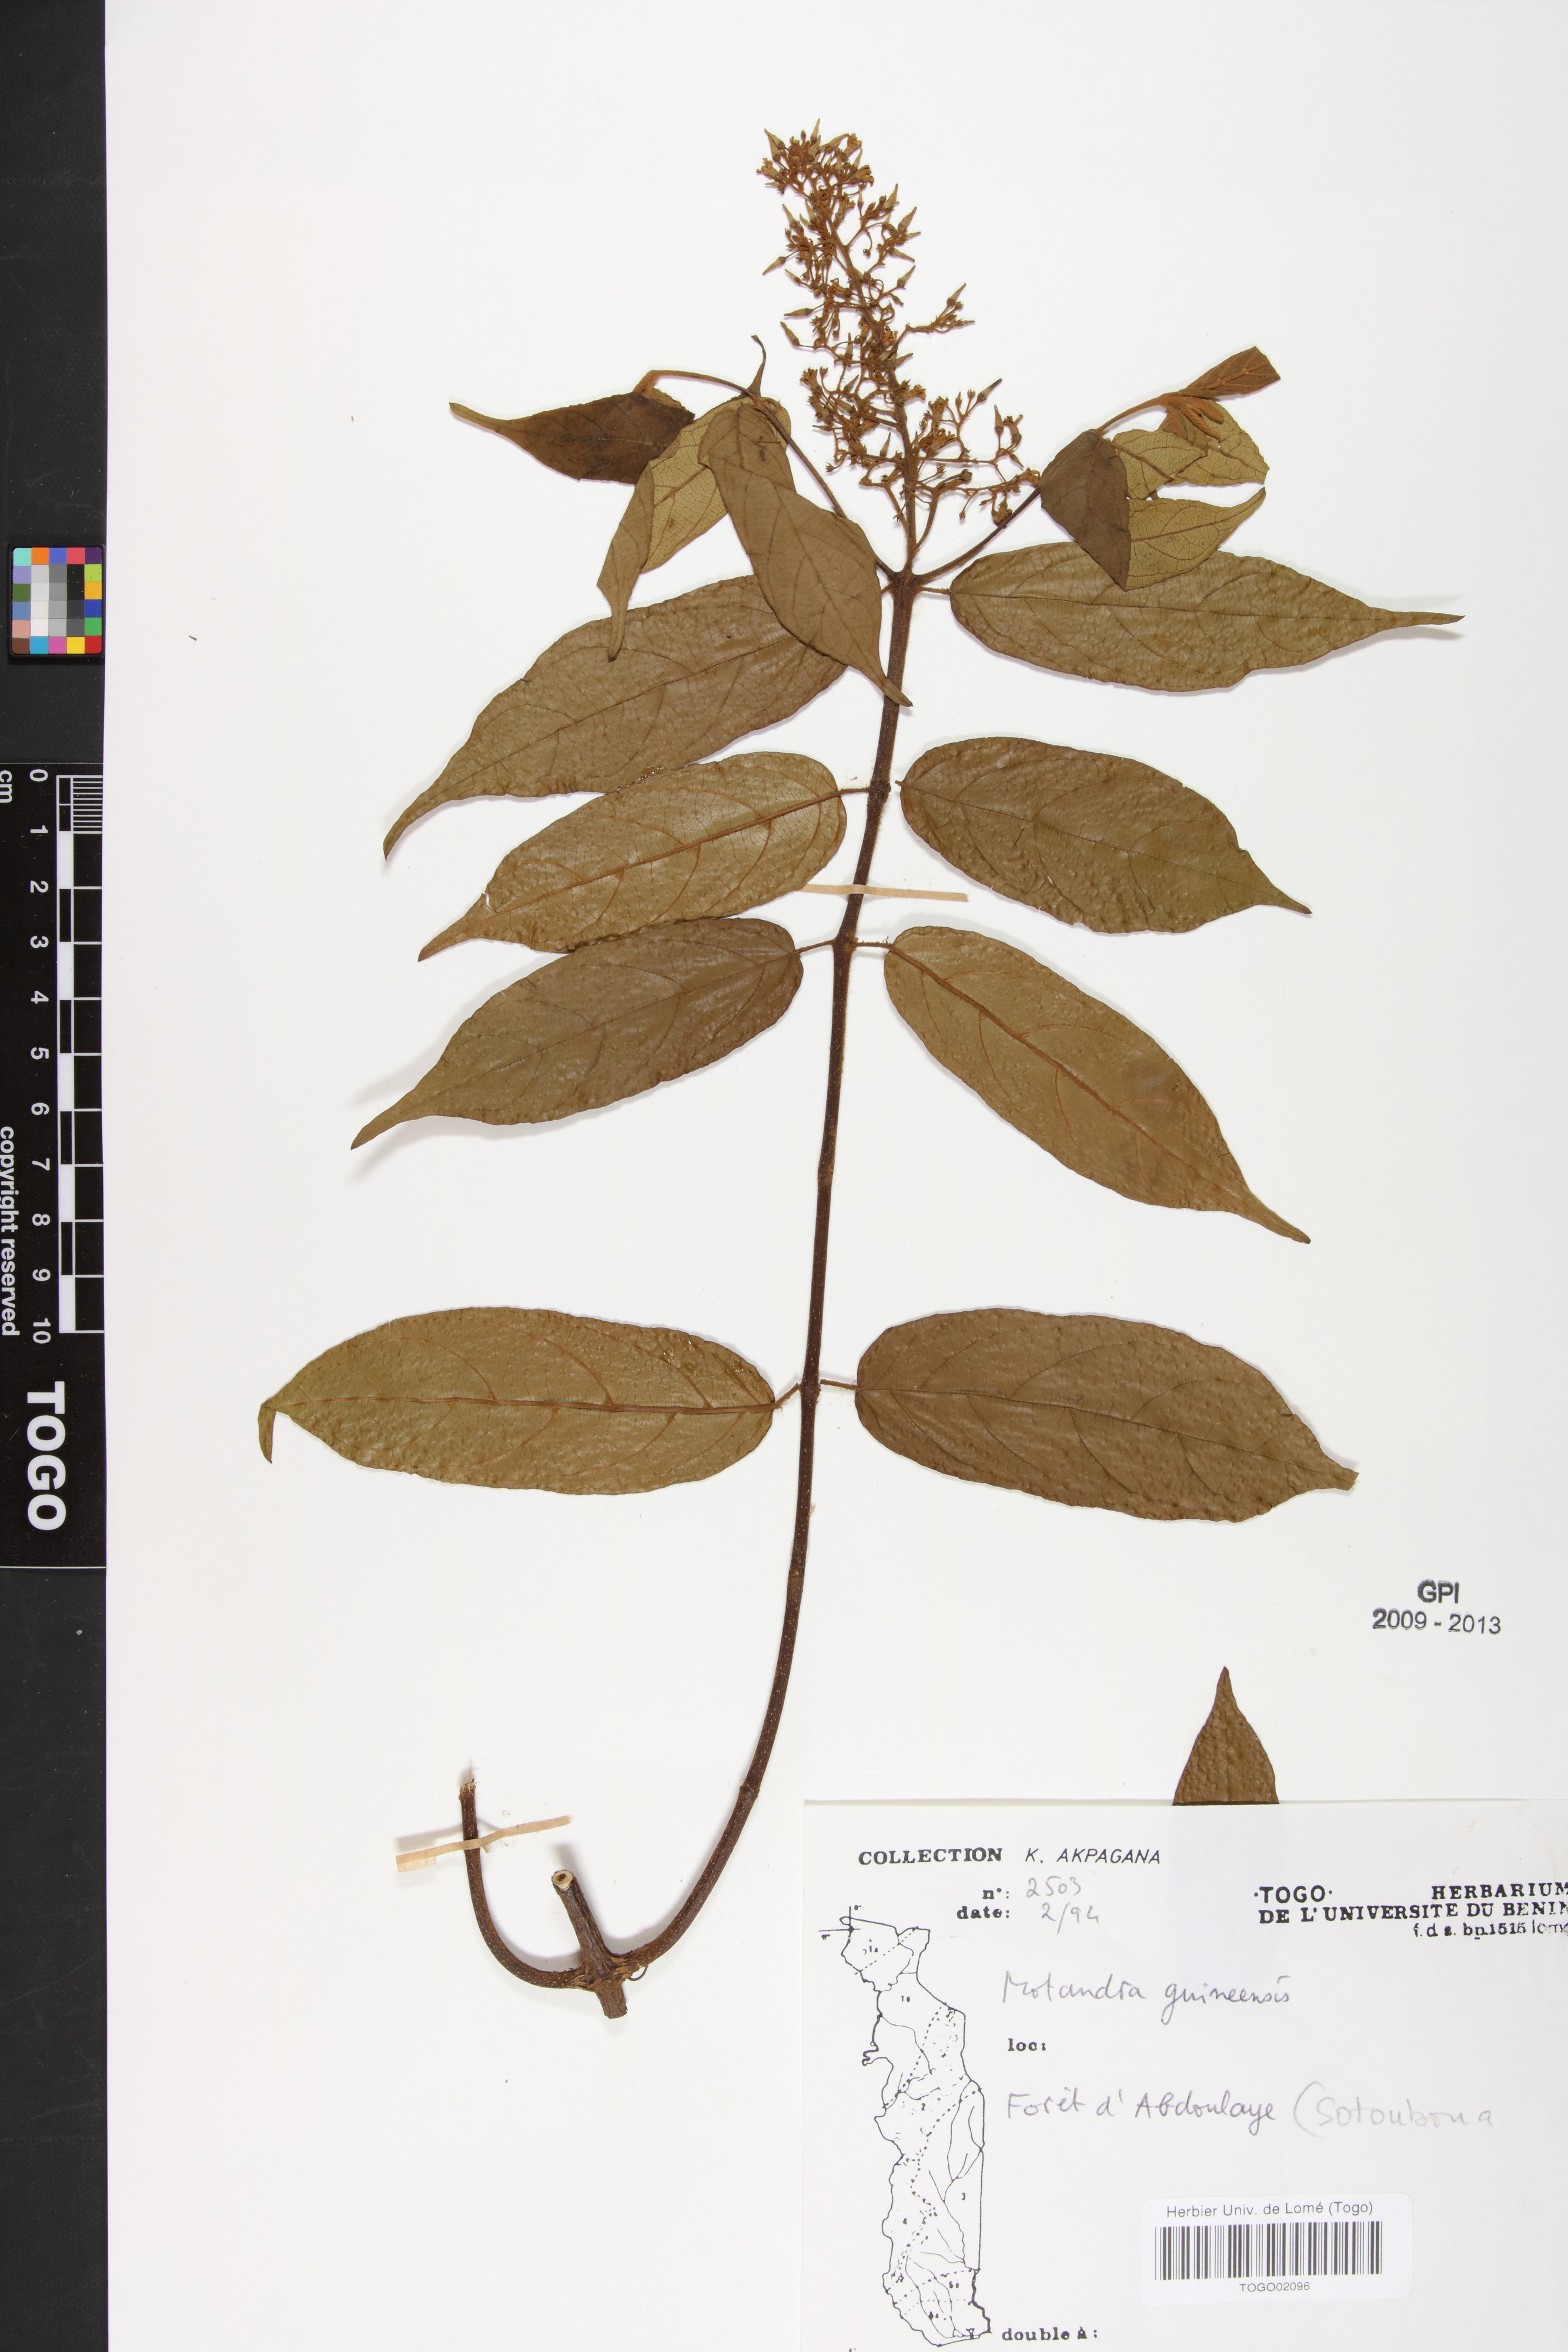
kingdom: Plantae
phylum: Tracheophyta
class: Magnoliopsida
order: Gentianales
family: Apocynaceae
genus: Motandra
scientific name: Motandra paniculata
